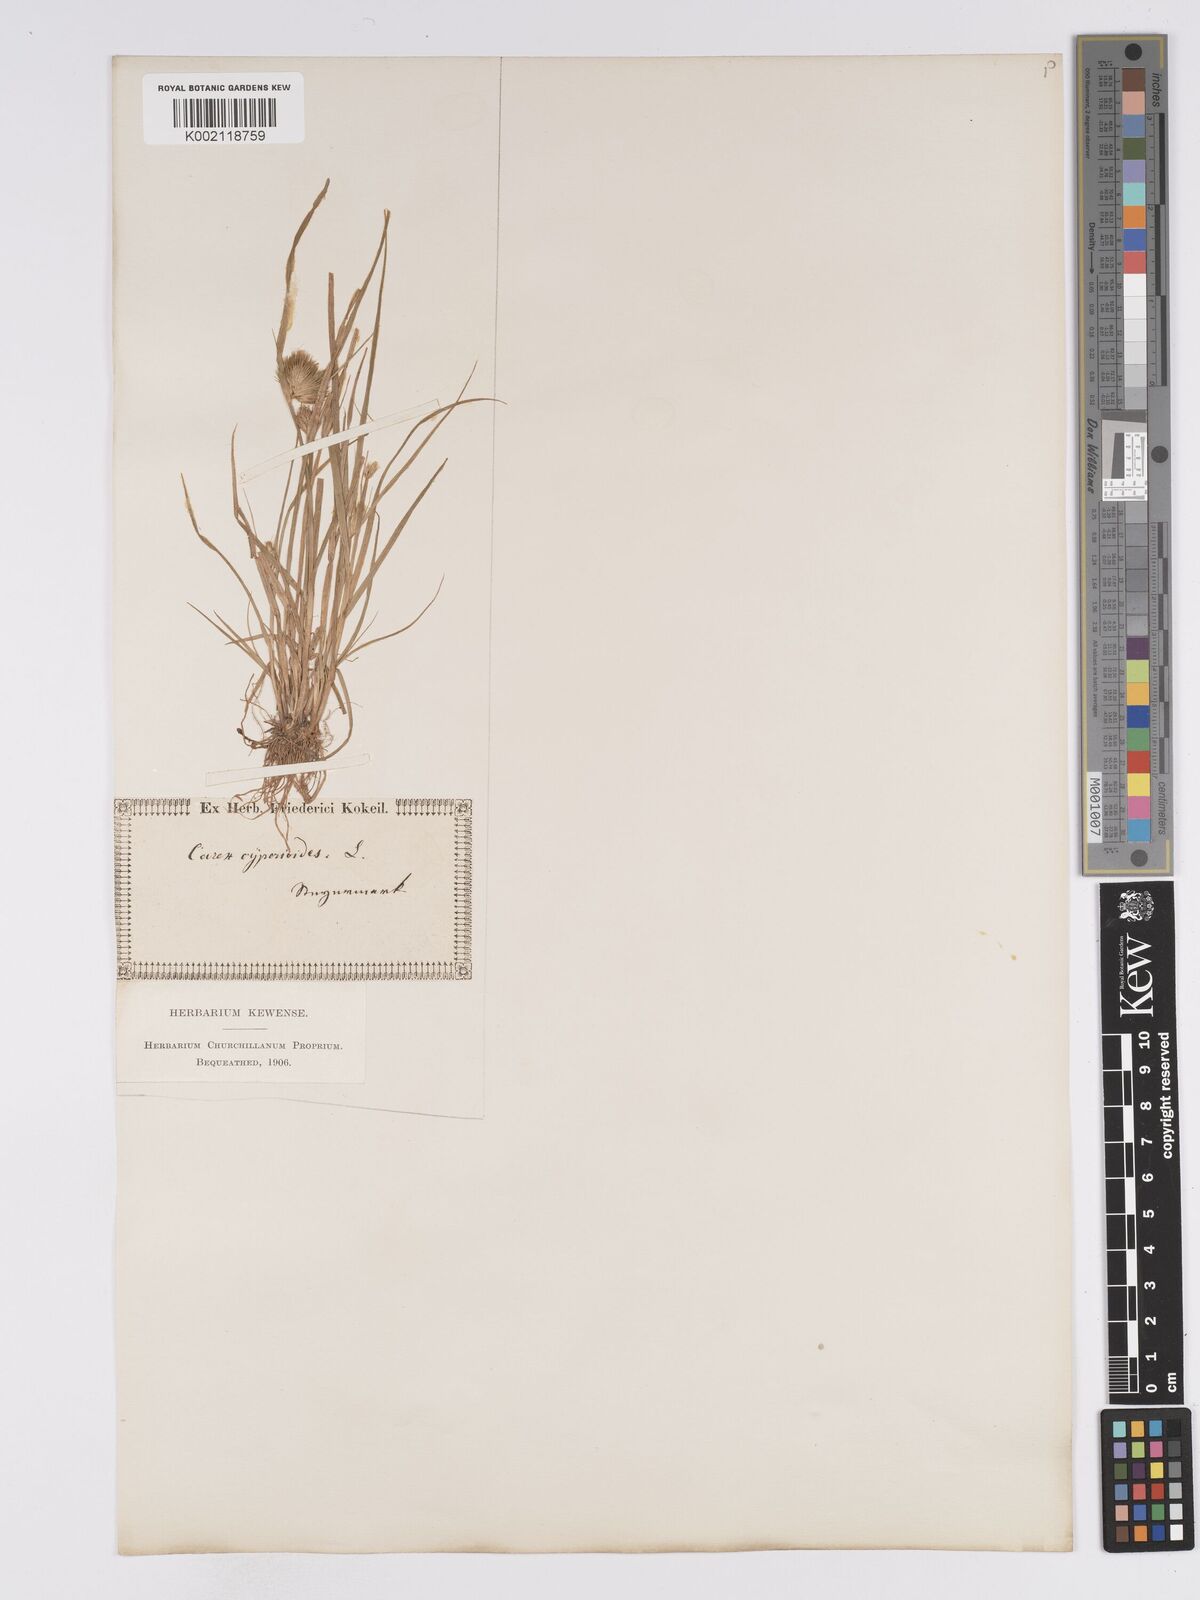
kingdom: Plantae
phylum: Tracheophyta
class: Liliopsida
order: Poales
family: Cyperaceae
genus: Carex
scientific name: Carex bohemica
